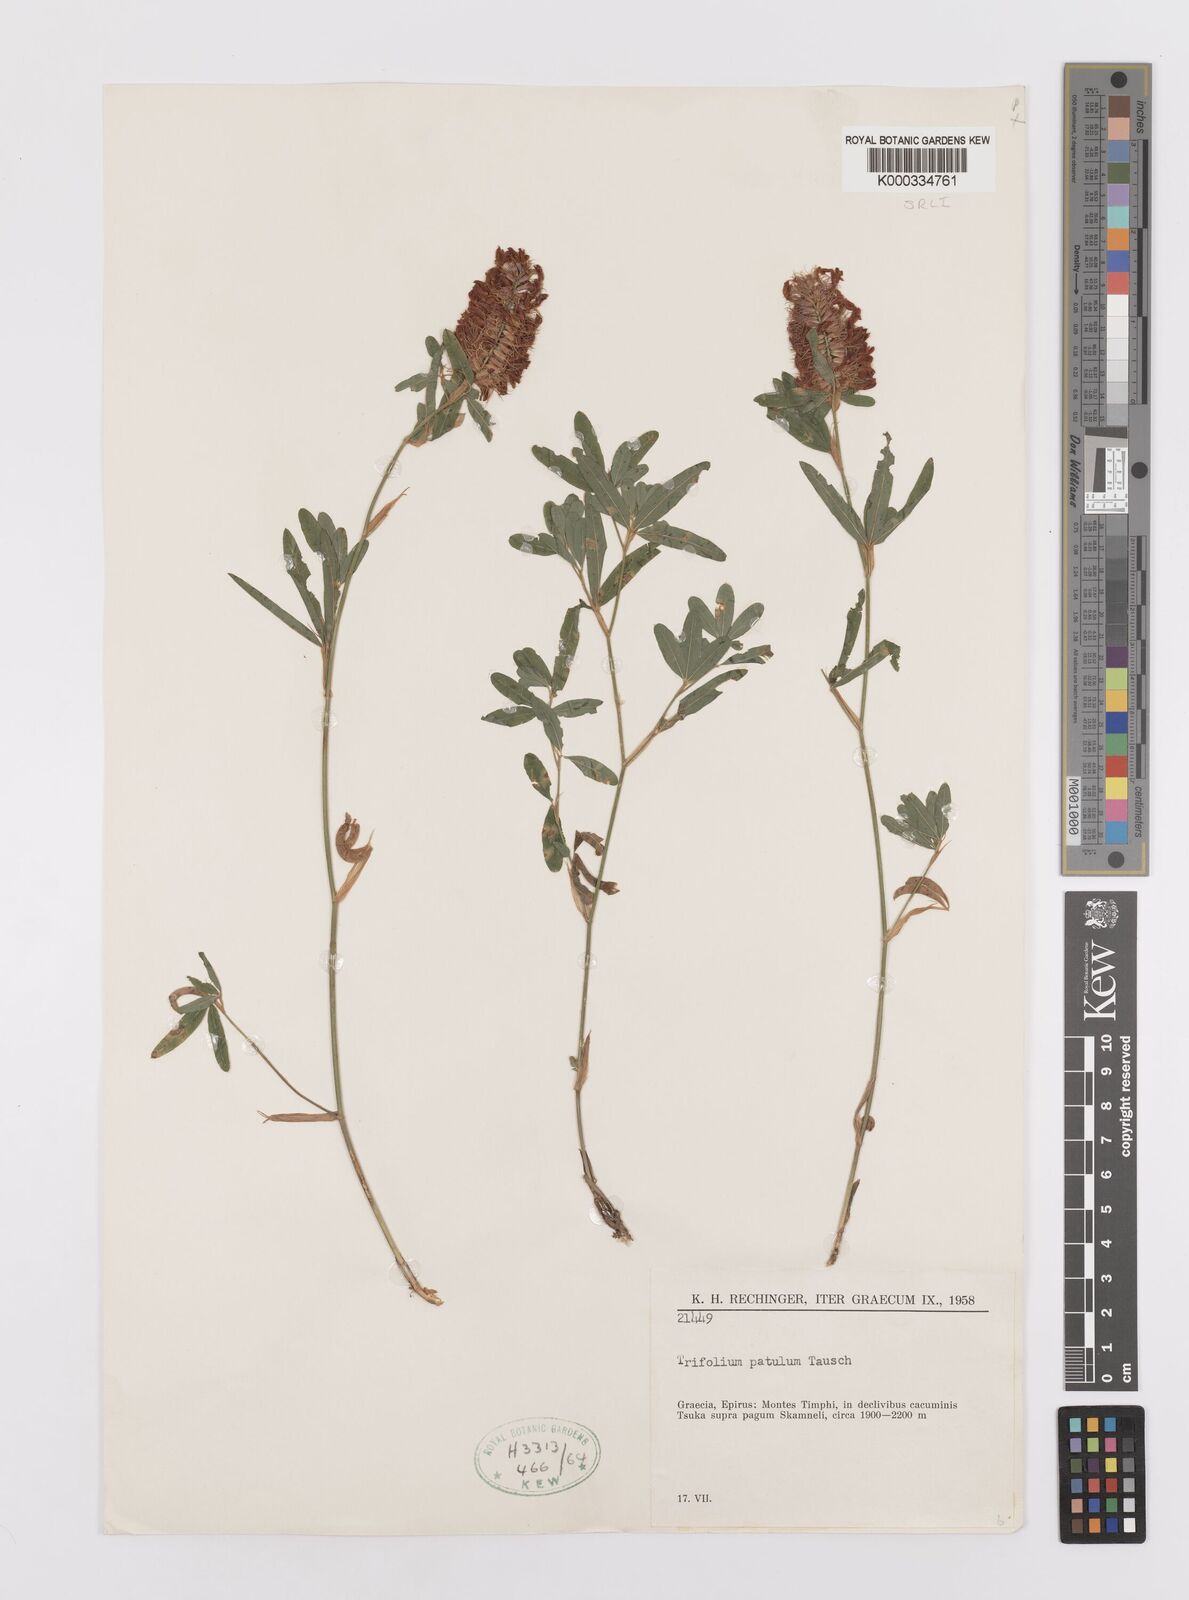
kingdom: Plantae
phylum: Tracheophyta
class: Magnoliopsida
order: Fabales
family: Fabaceae
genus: Trifolium
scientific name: Trifolium patulum
